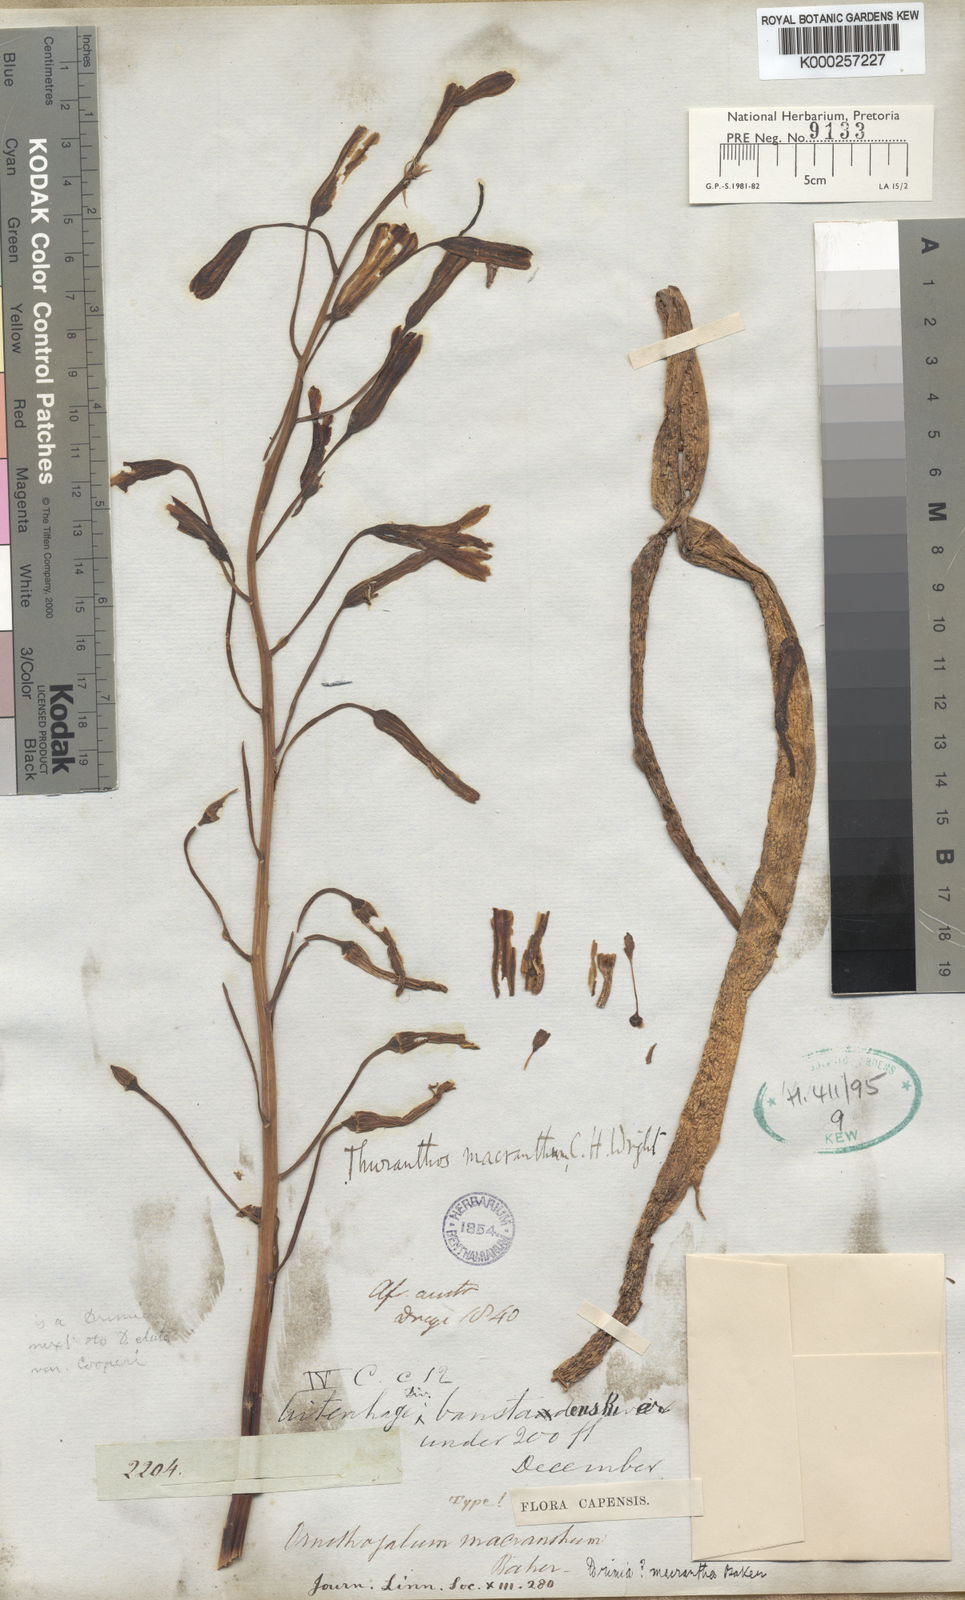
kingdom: Plantae
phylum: Tracheophyta
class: Liliopsida
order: Asparagales
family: Asparagaceae
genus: Drimia
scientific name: Drimia macrantha
